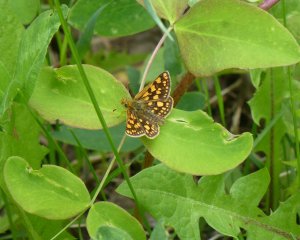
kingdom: Animalia
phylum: Arthropoda
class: Insecta
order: Lepidoptera
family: Hesperiidae
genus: Carterocephalus
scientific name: Carterocephalus palaemon
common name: Chequered Skipper
